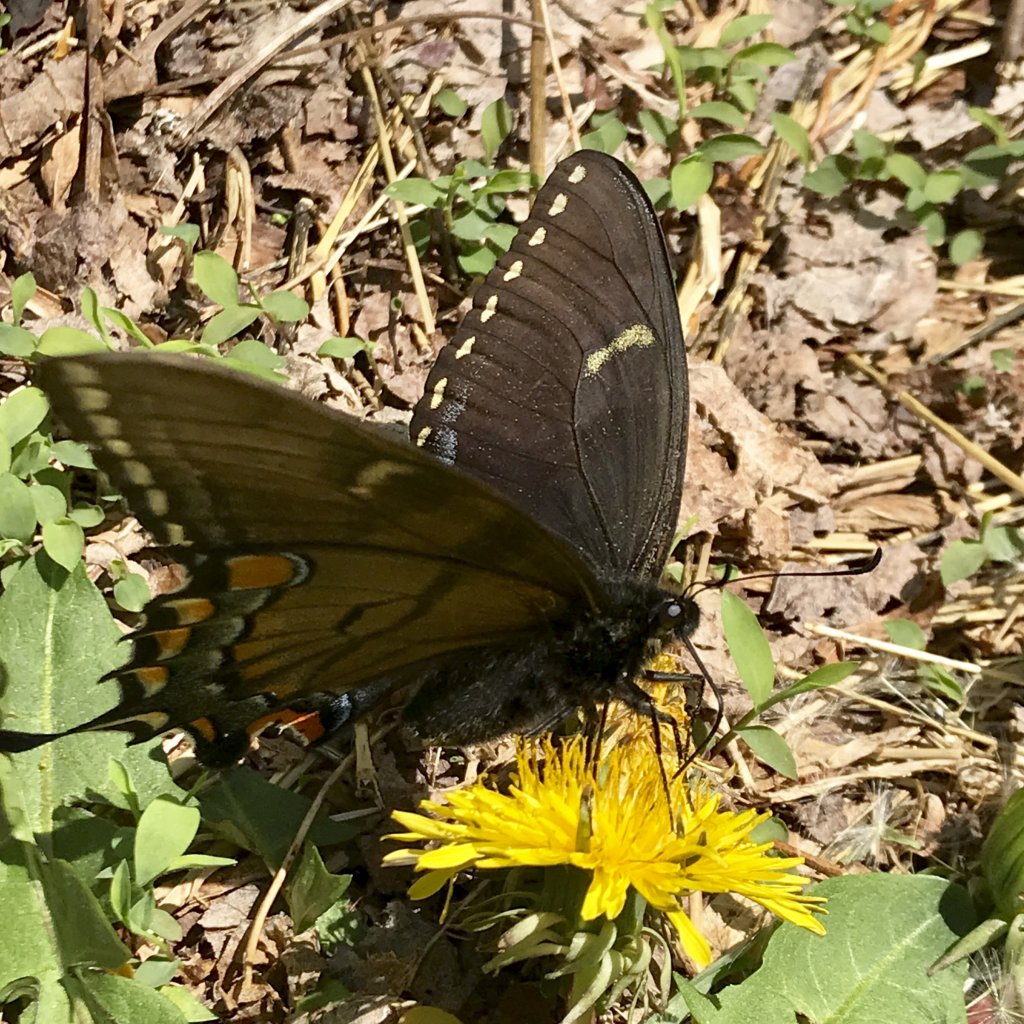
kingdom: Animalia
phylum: Arthropoda
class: Insecta
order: Lepidoptera
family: Papilionidae
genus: Pterourus
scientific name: Pterourus glaucus
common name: Eastern Tiger Swallowtail
